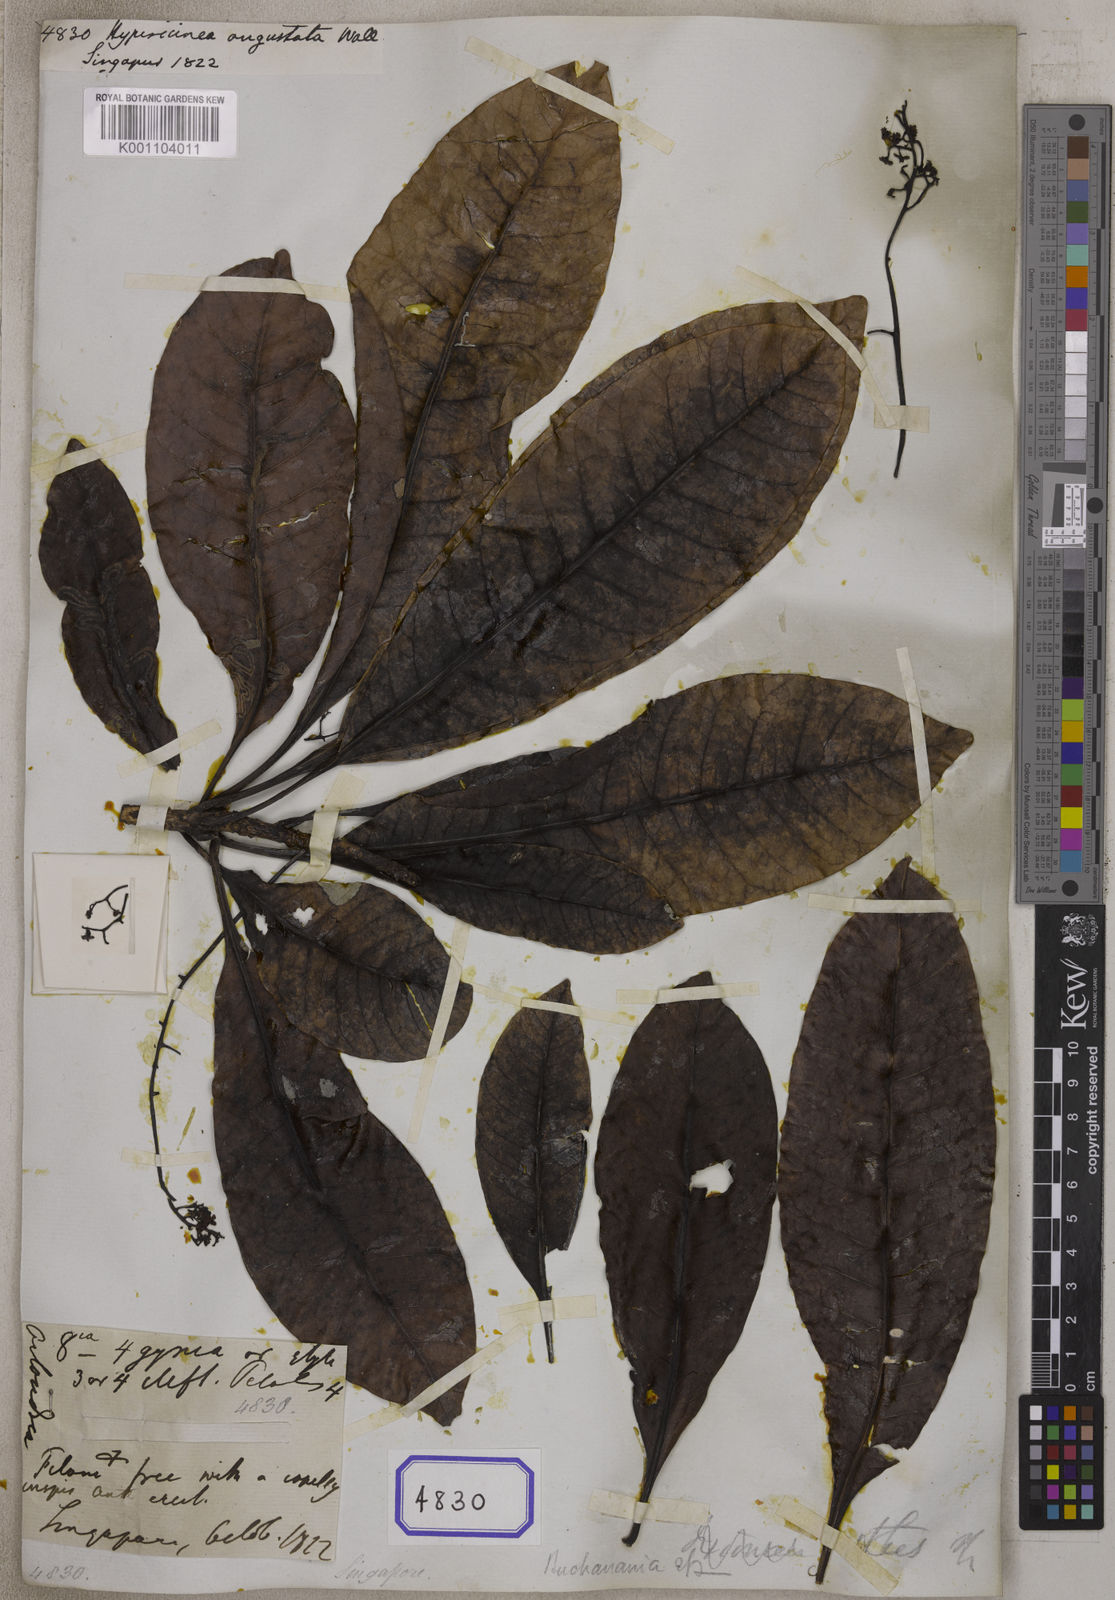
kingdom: Plantae
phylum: Tracheophyta
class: Magnoliopsida
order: Sapindales
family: Anacardiaceae
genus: Buchanania
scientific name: Buchanania vitiensis
